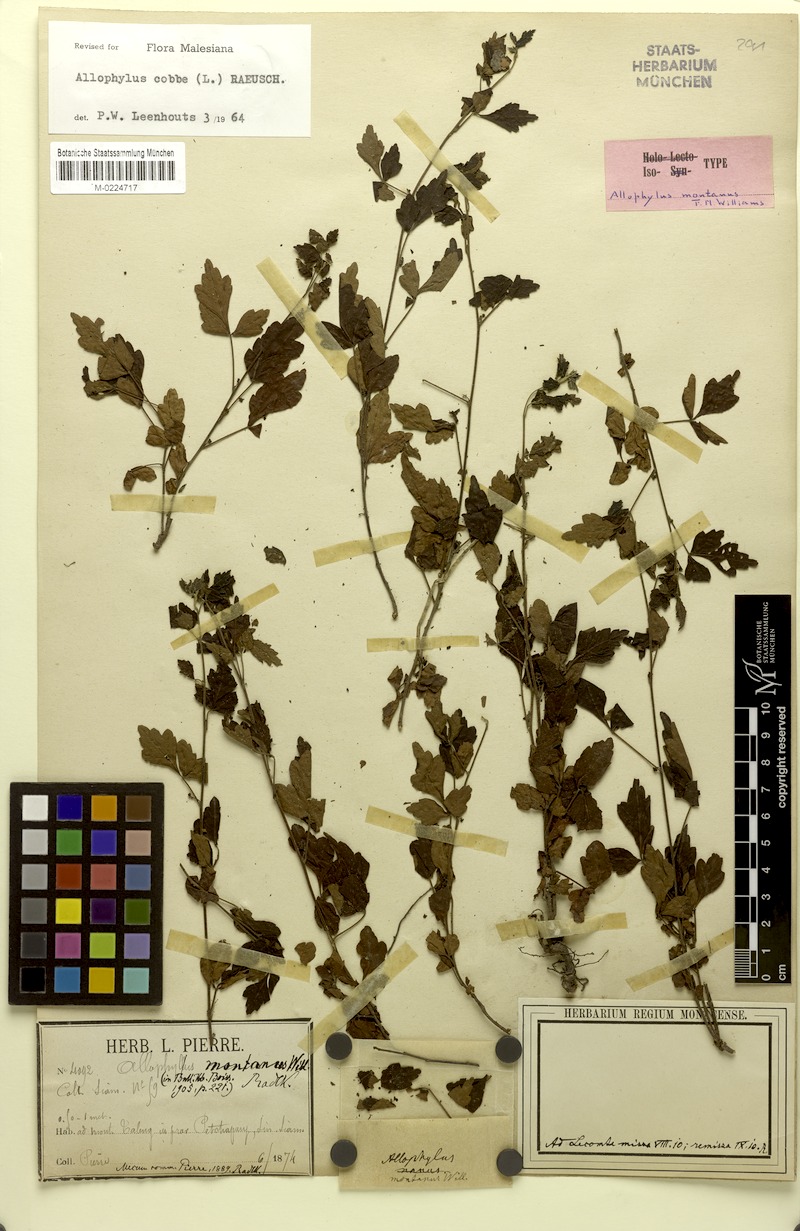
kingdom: Plantae
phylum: Tracheophyta
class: Magnoliopsida
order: Sapindales
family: Sapindaceae
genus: Allophylus
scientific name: Allophylus montanus
